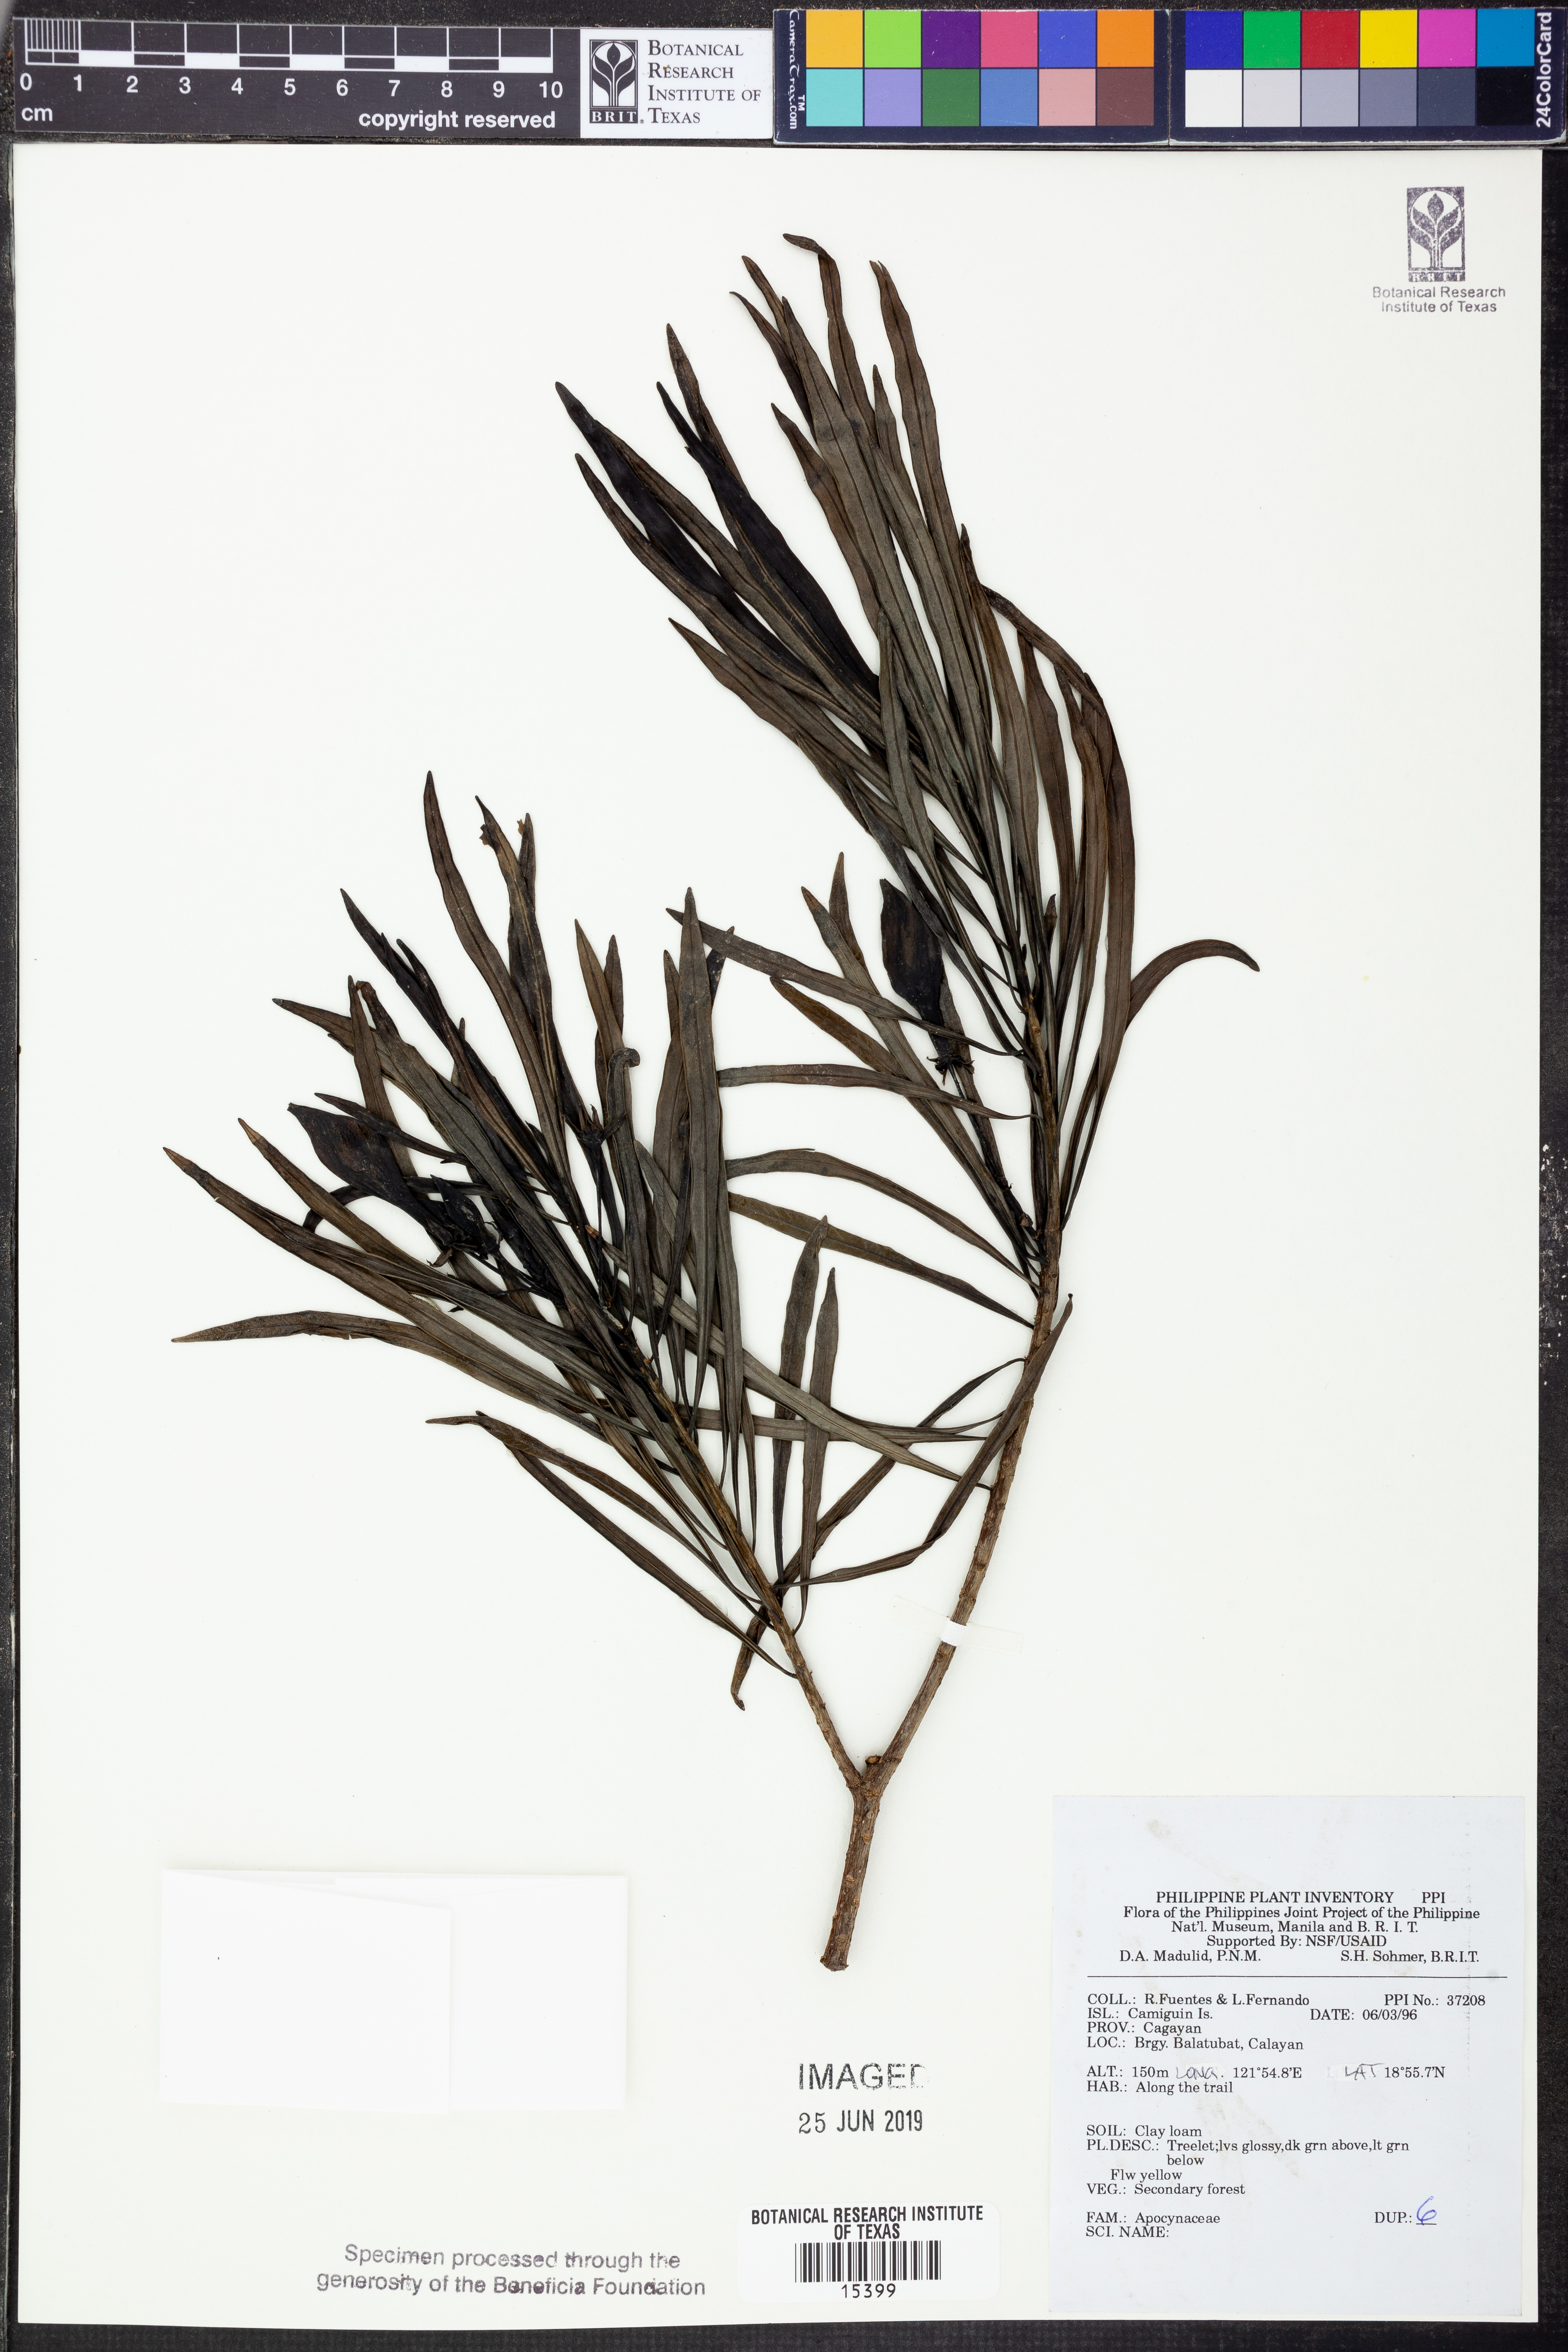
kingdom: Plantae
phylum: Tracheophyta
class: Magnoliopsida
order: Gentianales
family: Apocynaceae
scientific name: Apocynaceae
